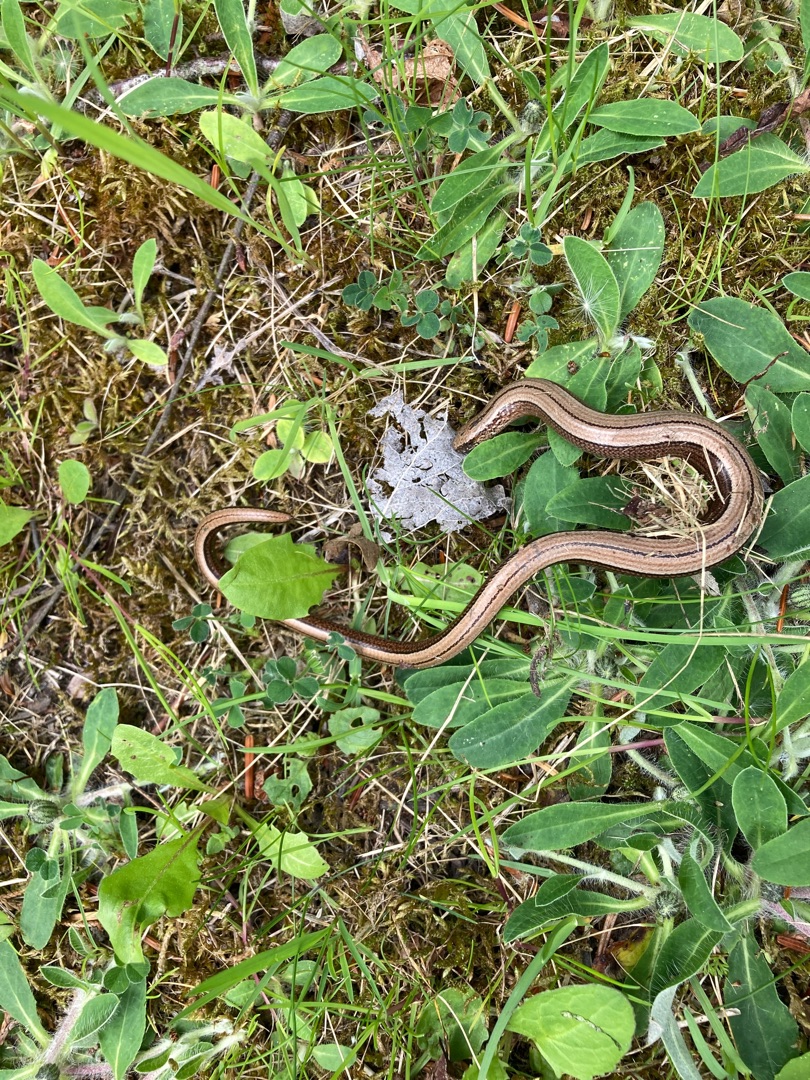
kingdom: Animalia
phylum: Chordata
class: Squamata
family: Anguidae
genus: Anguis
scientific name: Anguis fragilis
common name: Stålorm
